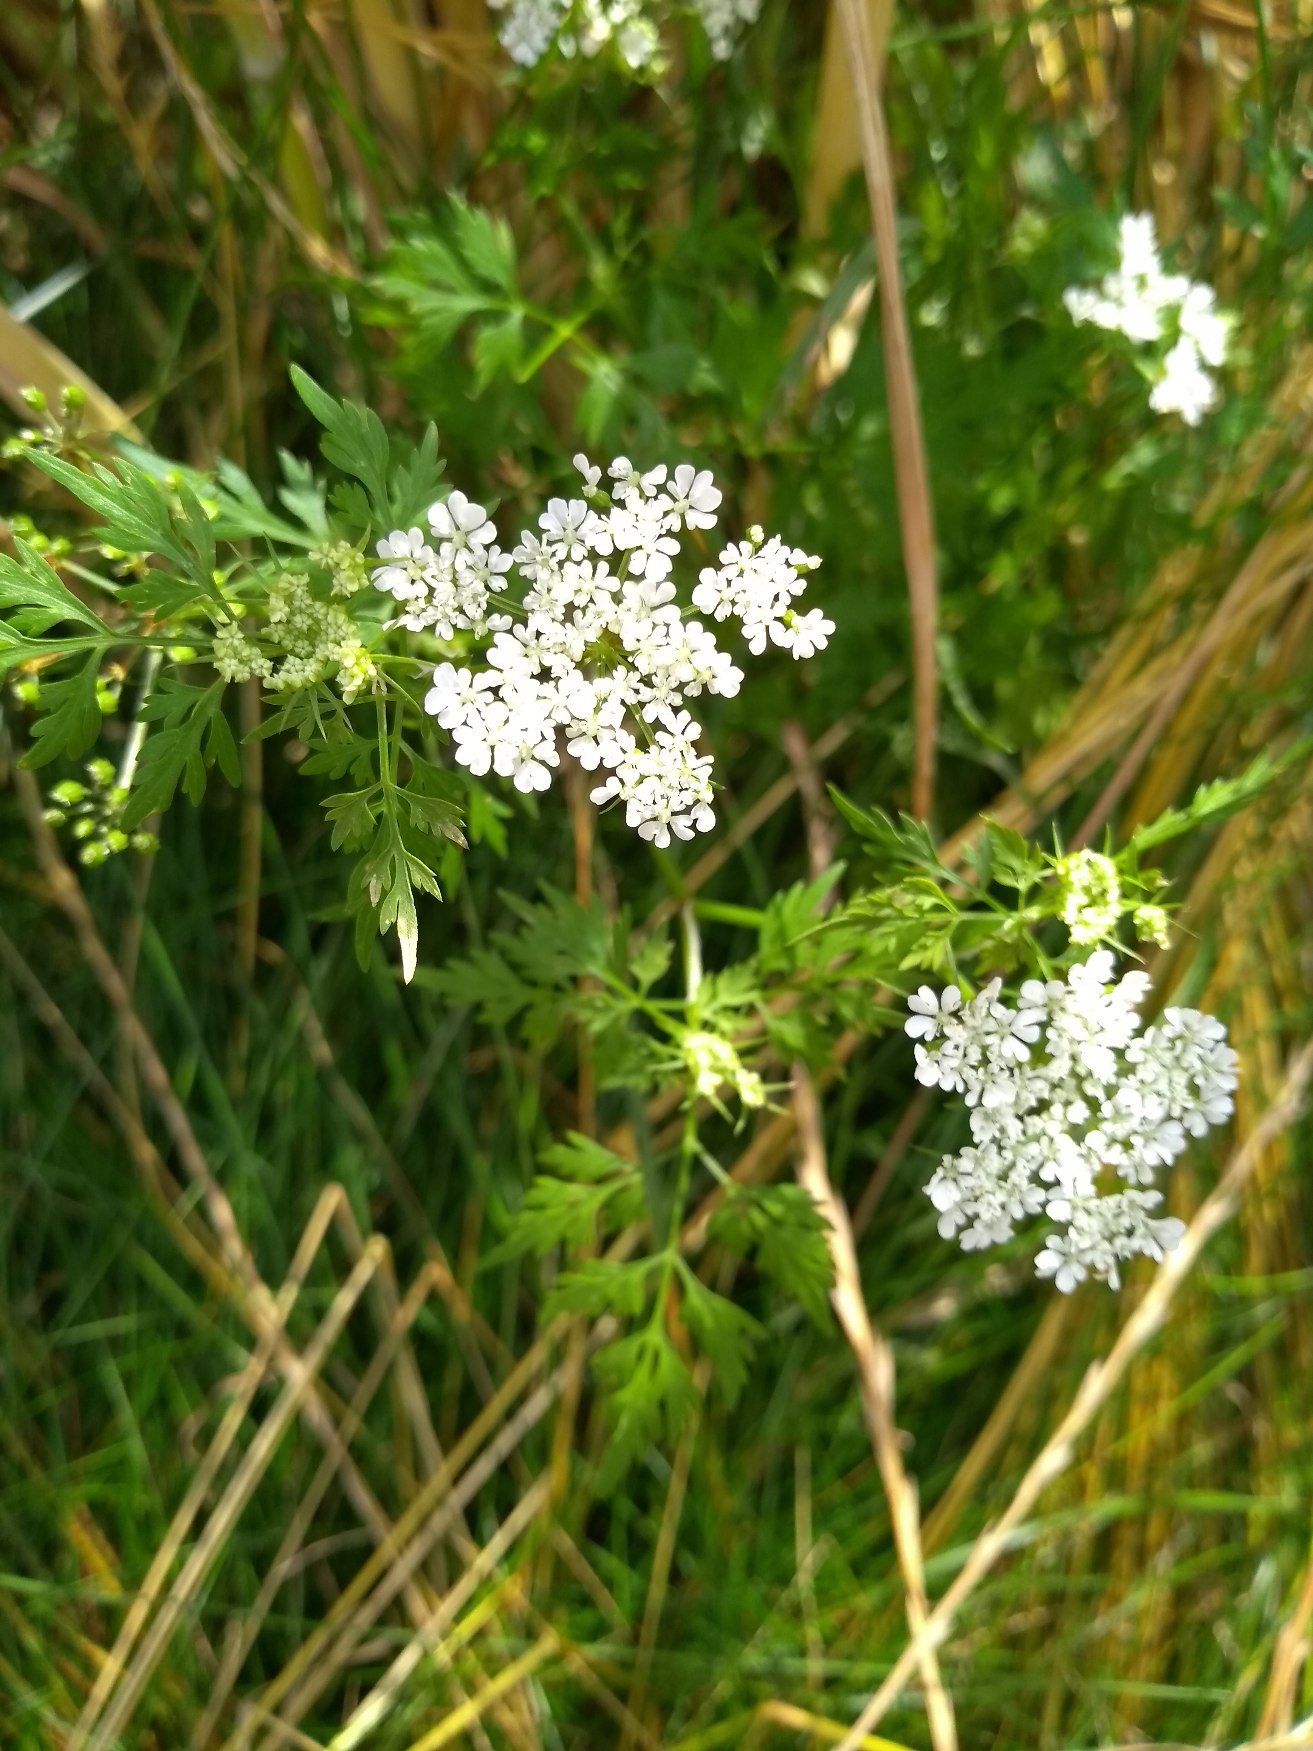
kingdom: Plantae
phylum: Tracheophyta
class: Magnoliopsida
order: Apiales
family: Apiaceae
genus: Aethusa
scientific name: Aethusa cynapium
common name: Hundepersille
